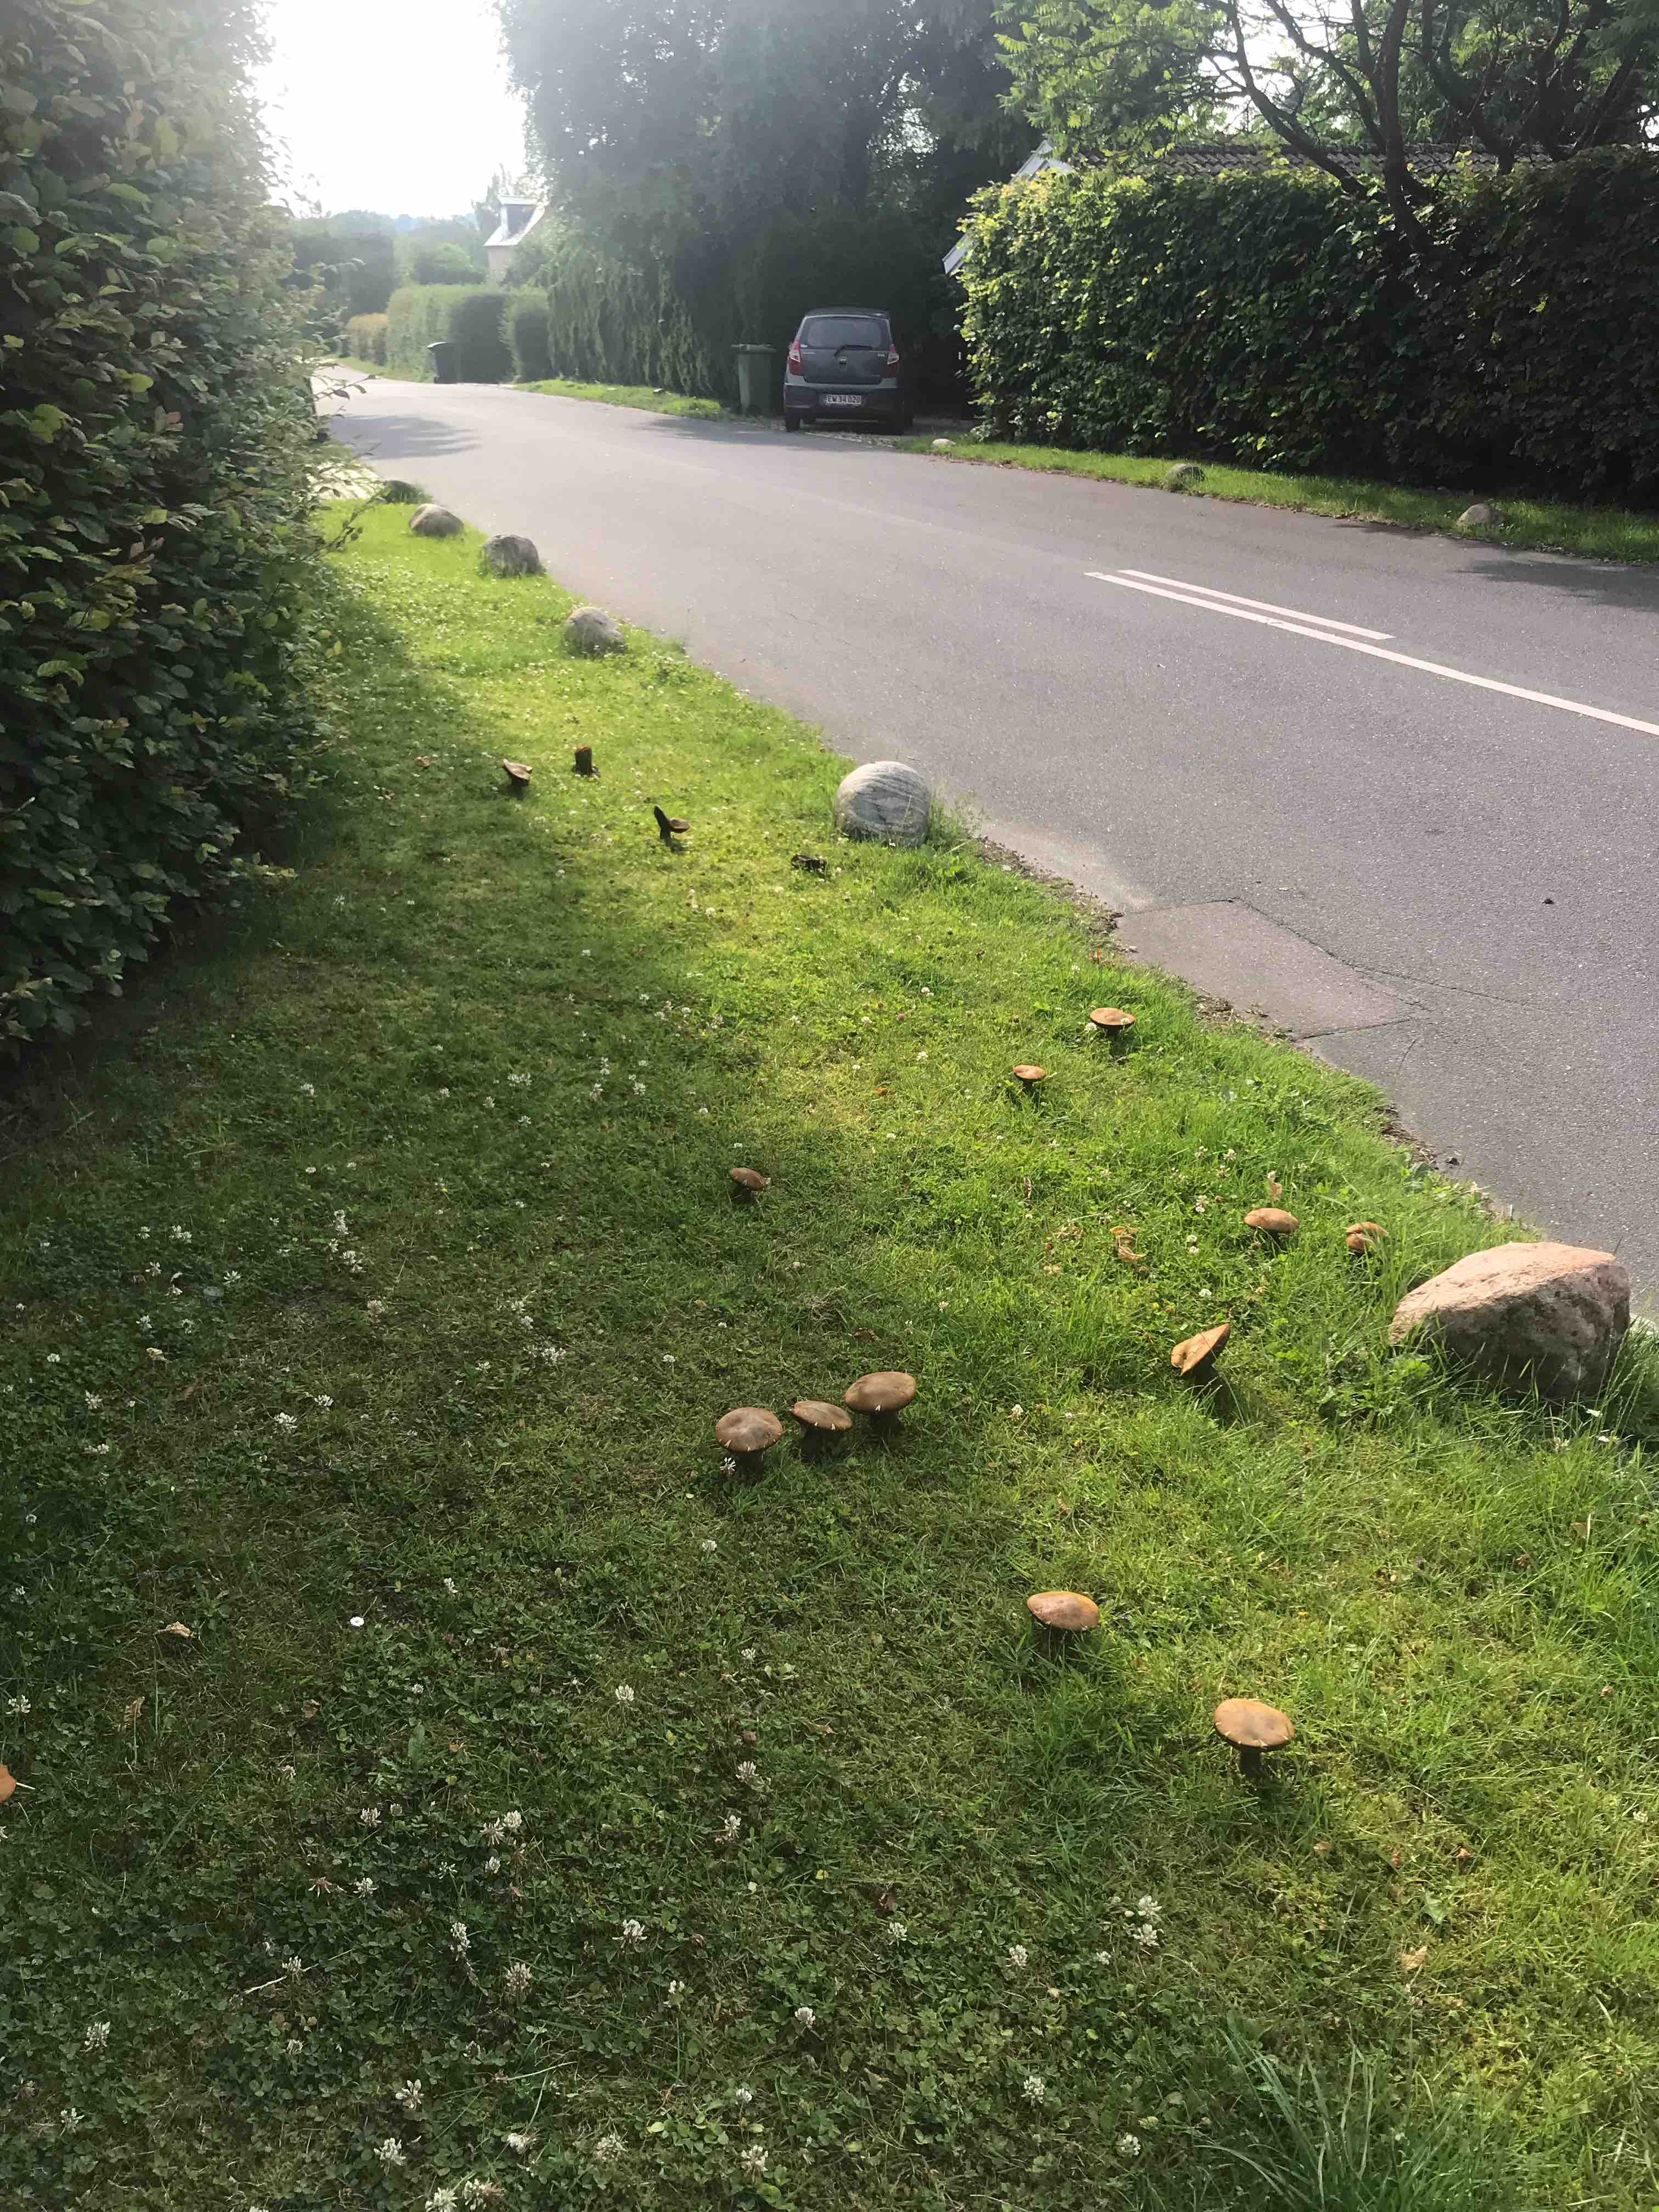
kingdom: Fungi
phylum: Basidiomycota
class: Agaricomycetes
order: Boletales
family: Boletaceae
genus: Suillellus
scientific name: Suillellus luridus
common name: netstokket indigorørhat
